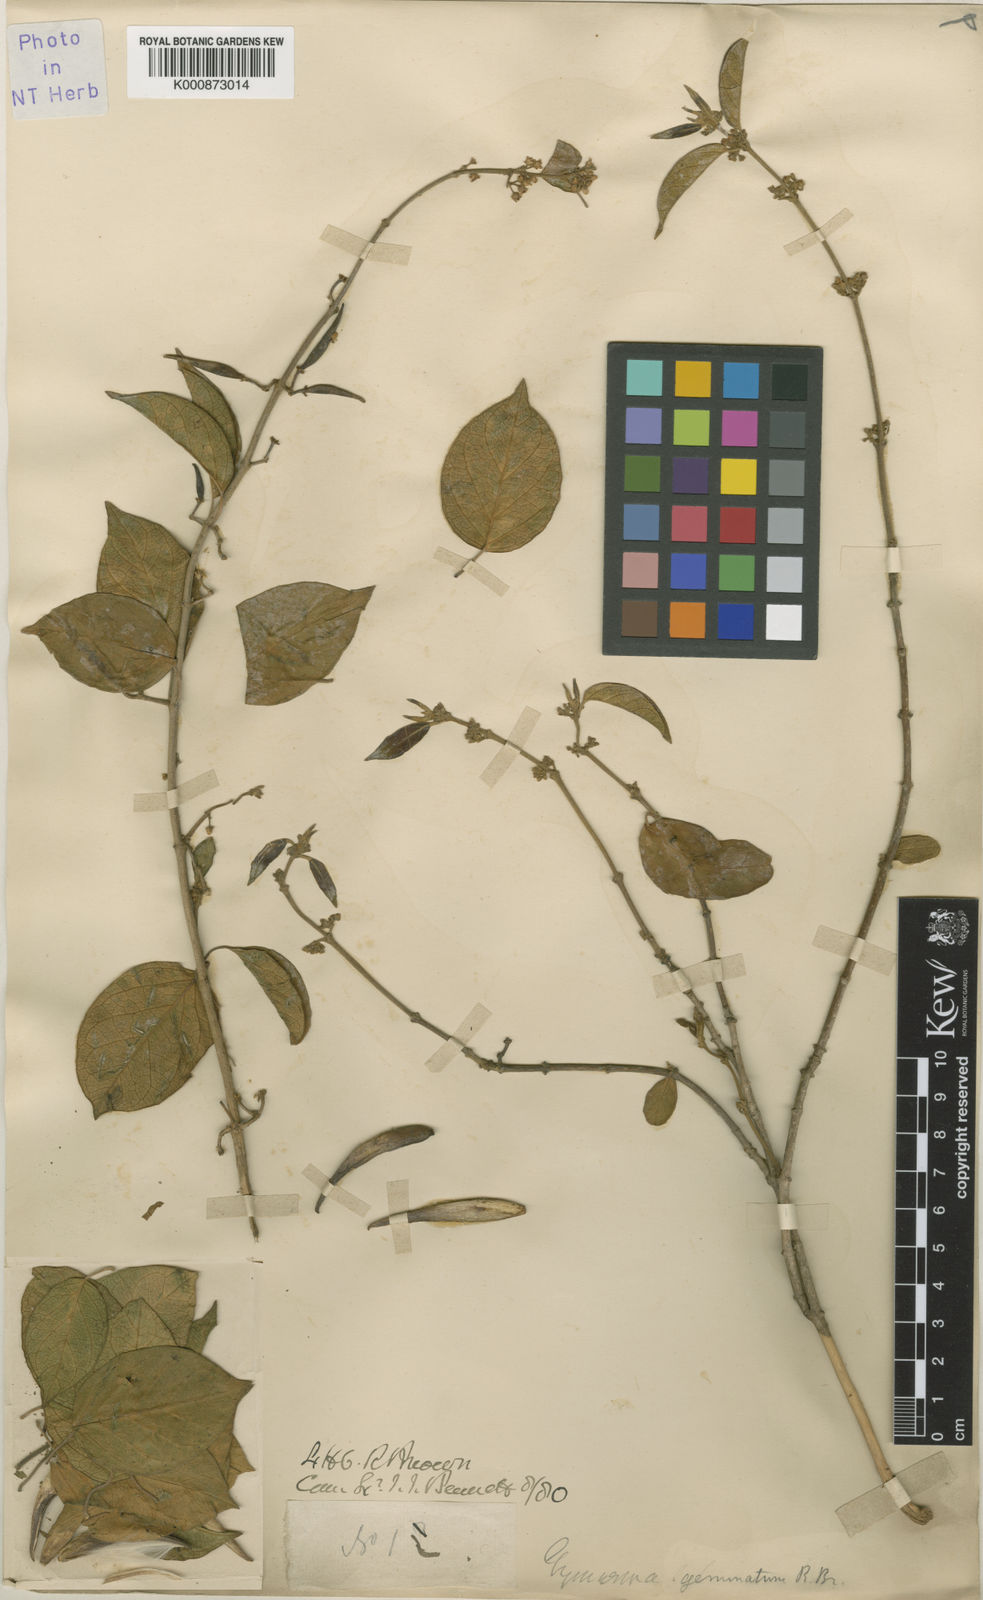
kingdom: Plantae
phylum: Tracheophyta
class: Magnoliopsida
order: Gentianales
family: Apocynaceae
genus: Gymnema
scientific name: Gymnema geminatum
